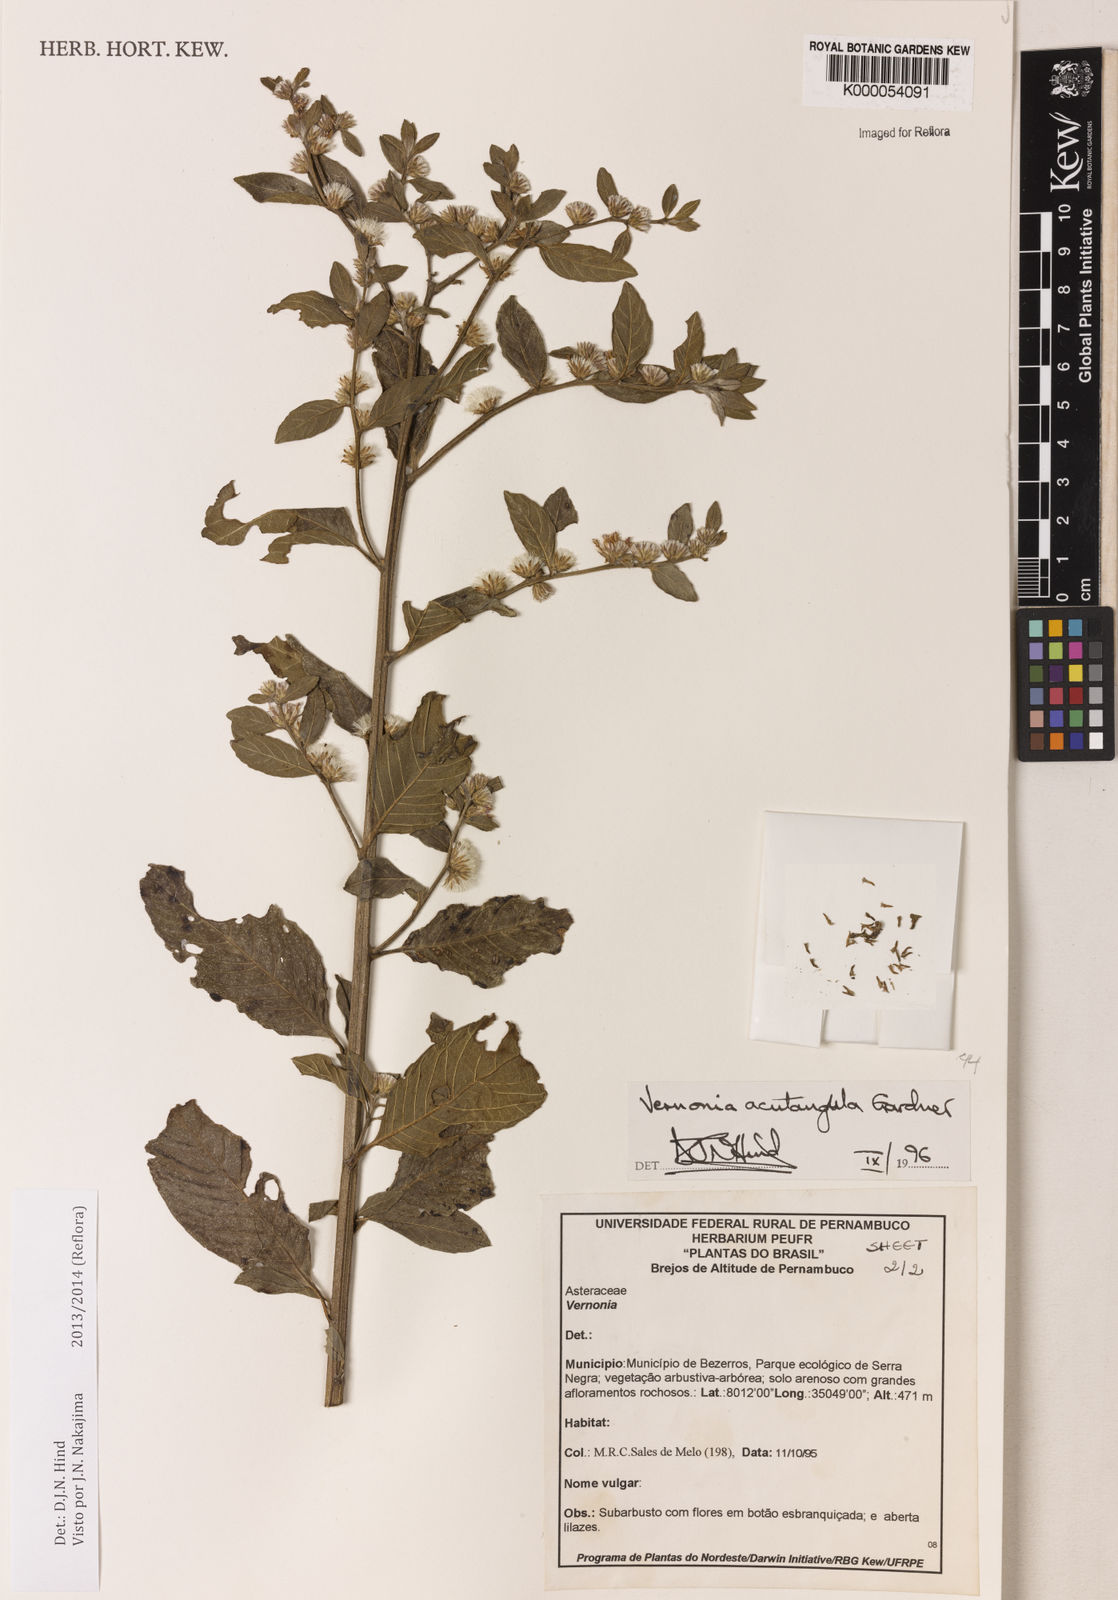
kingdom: Plantae
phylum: Tracheophyta
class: Magnoliopsida
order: Asterales
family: Asteraceae
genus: Lepidaploa
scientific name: Lepidaploa acutangula
